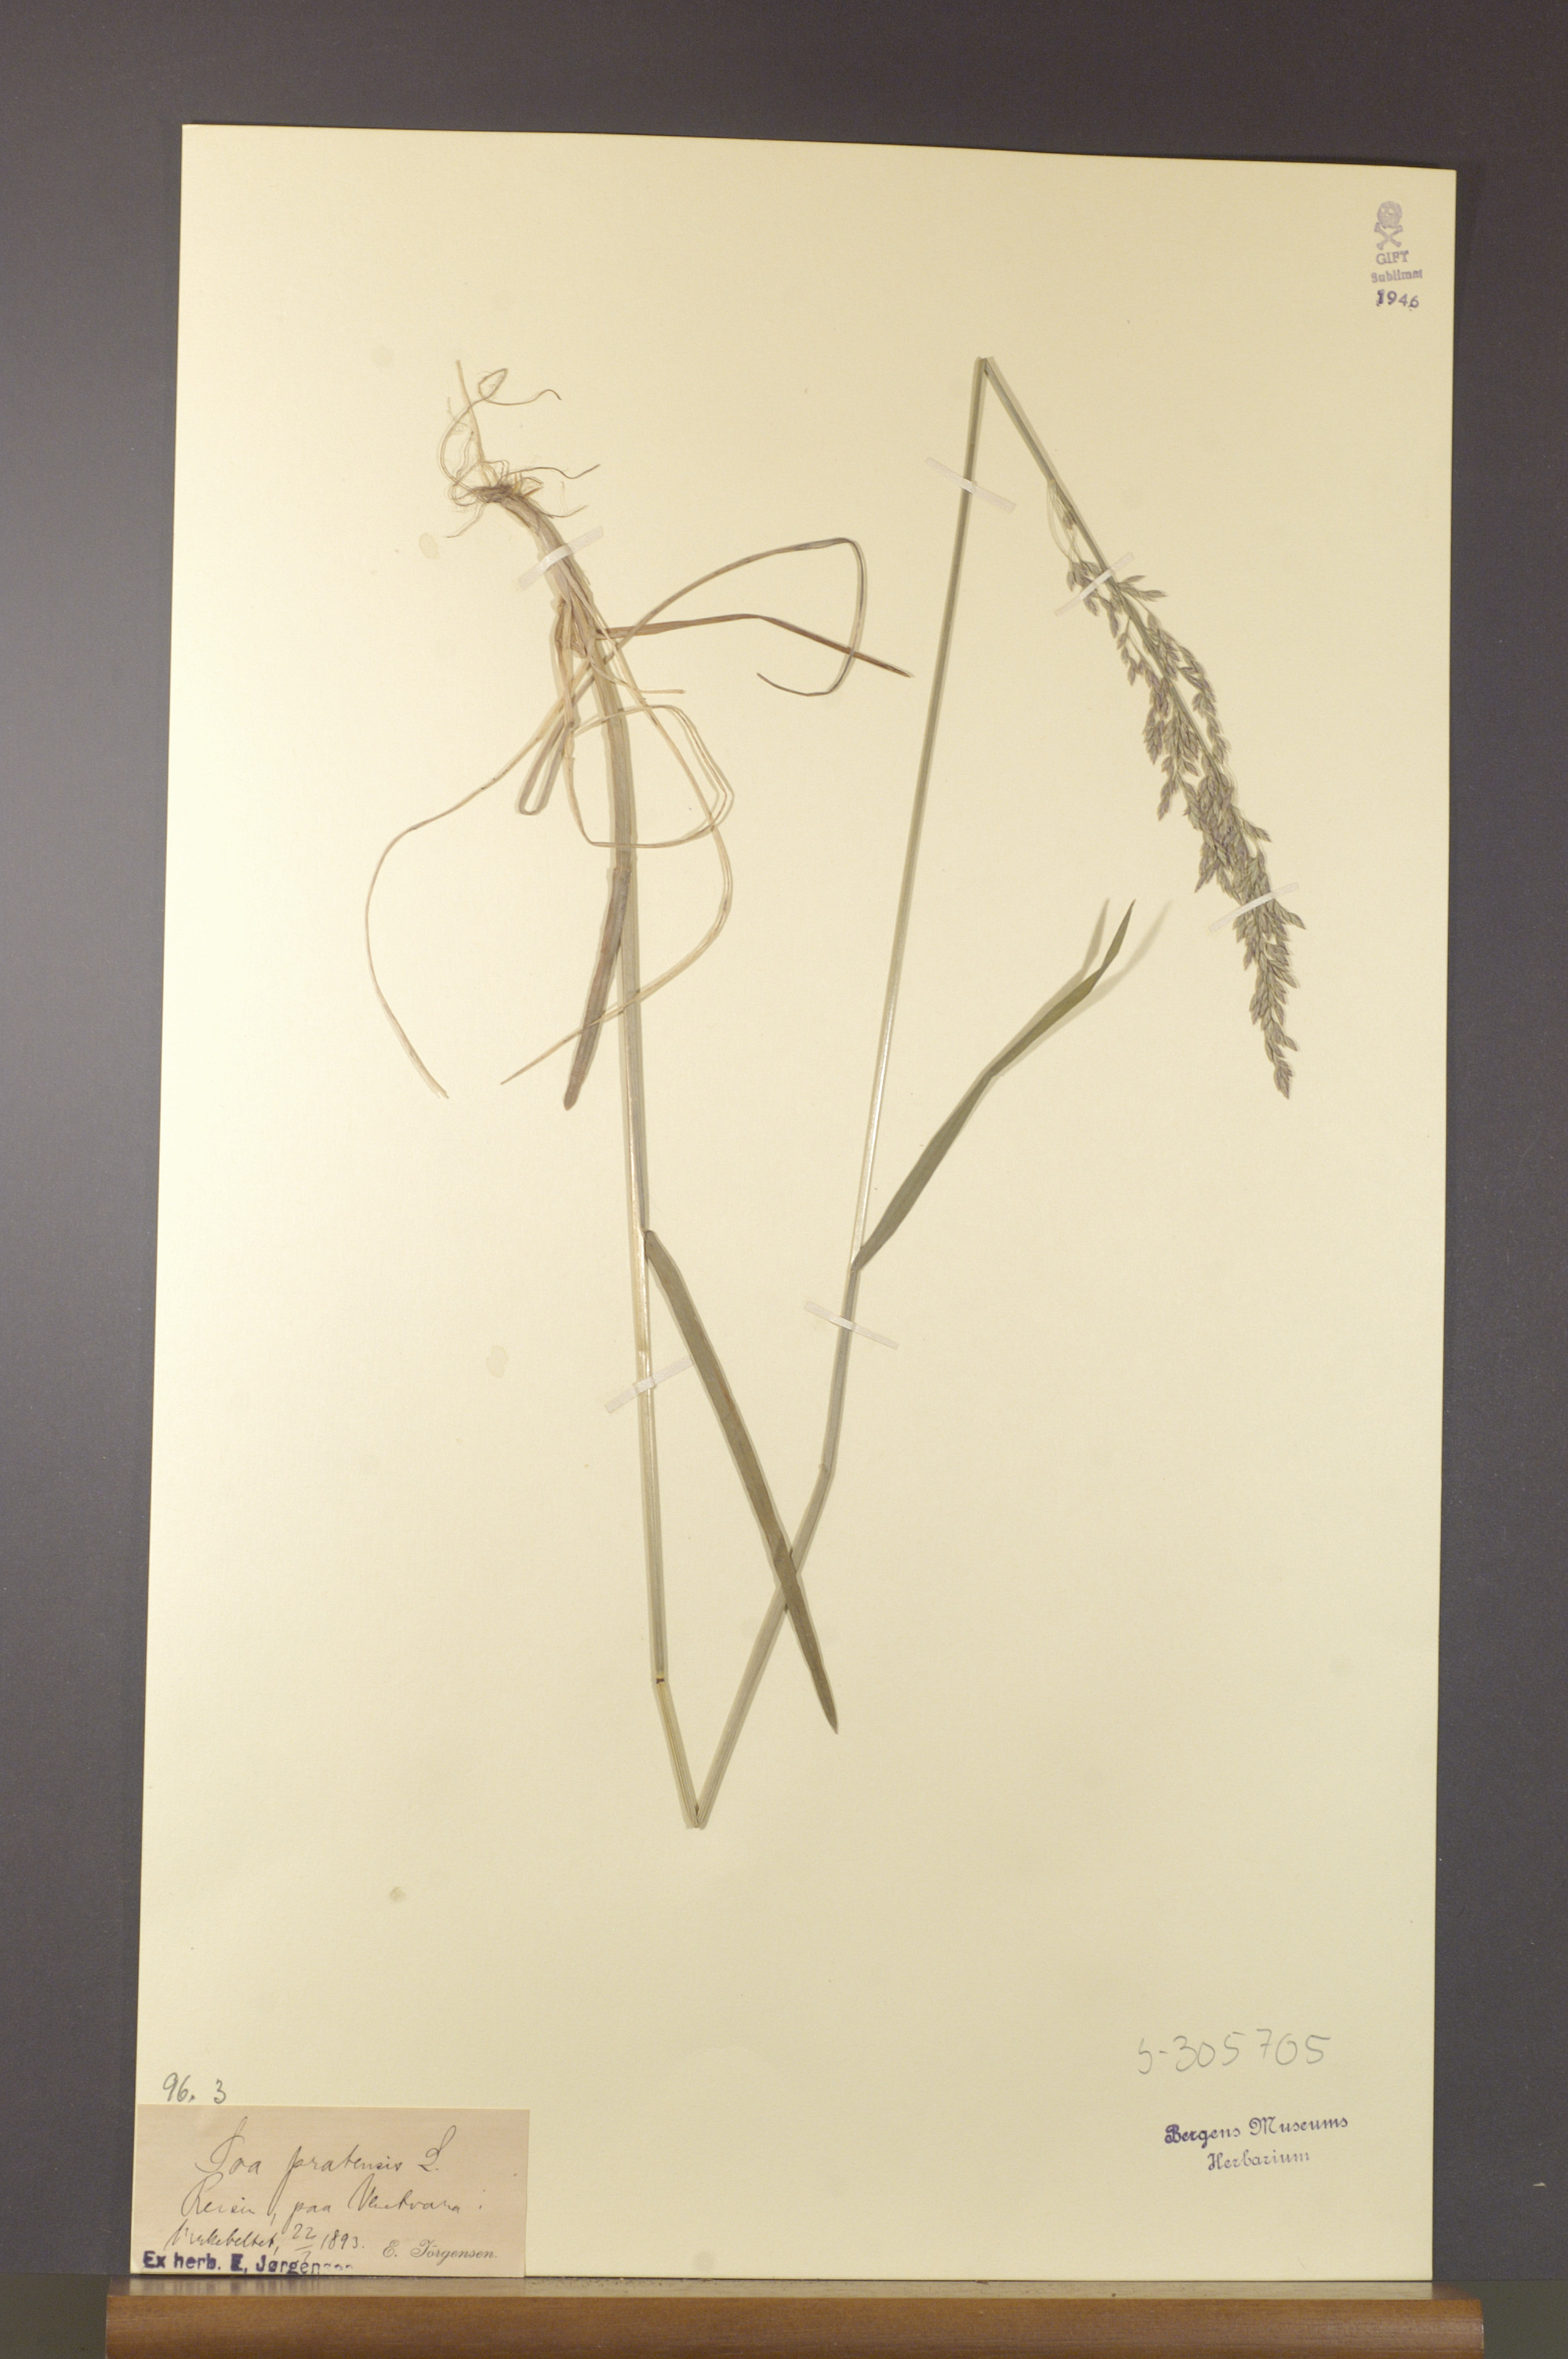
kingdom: Plantae
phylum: Tracheophyta
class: Liliopsida
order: Poales
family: Poaceae
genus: Poa
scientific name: Poa pratensis
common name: Kentucky bluegrass
